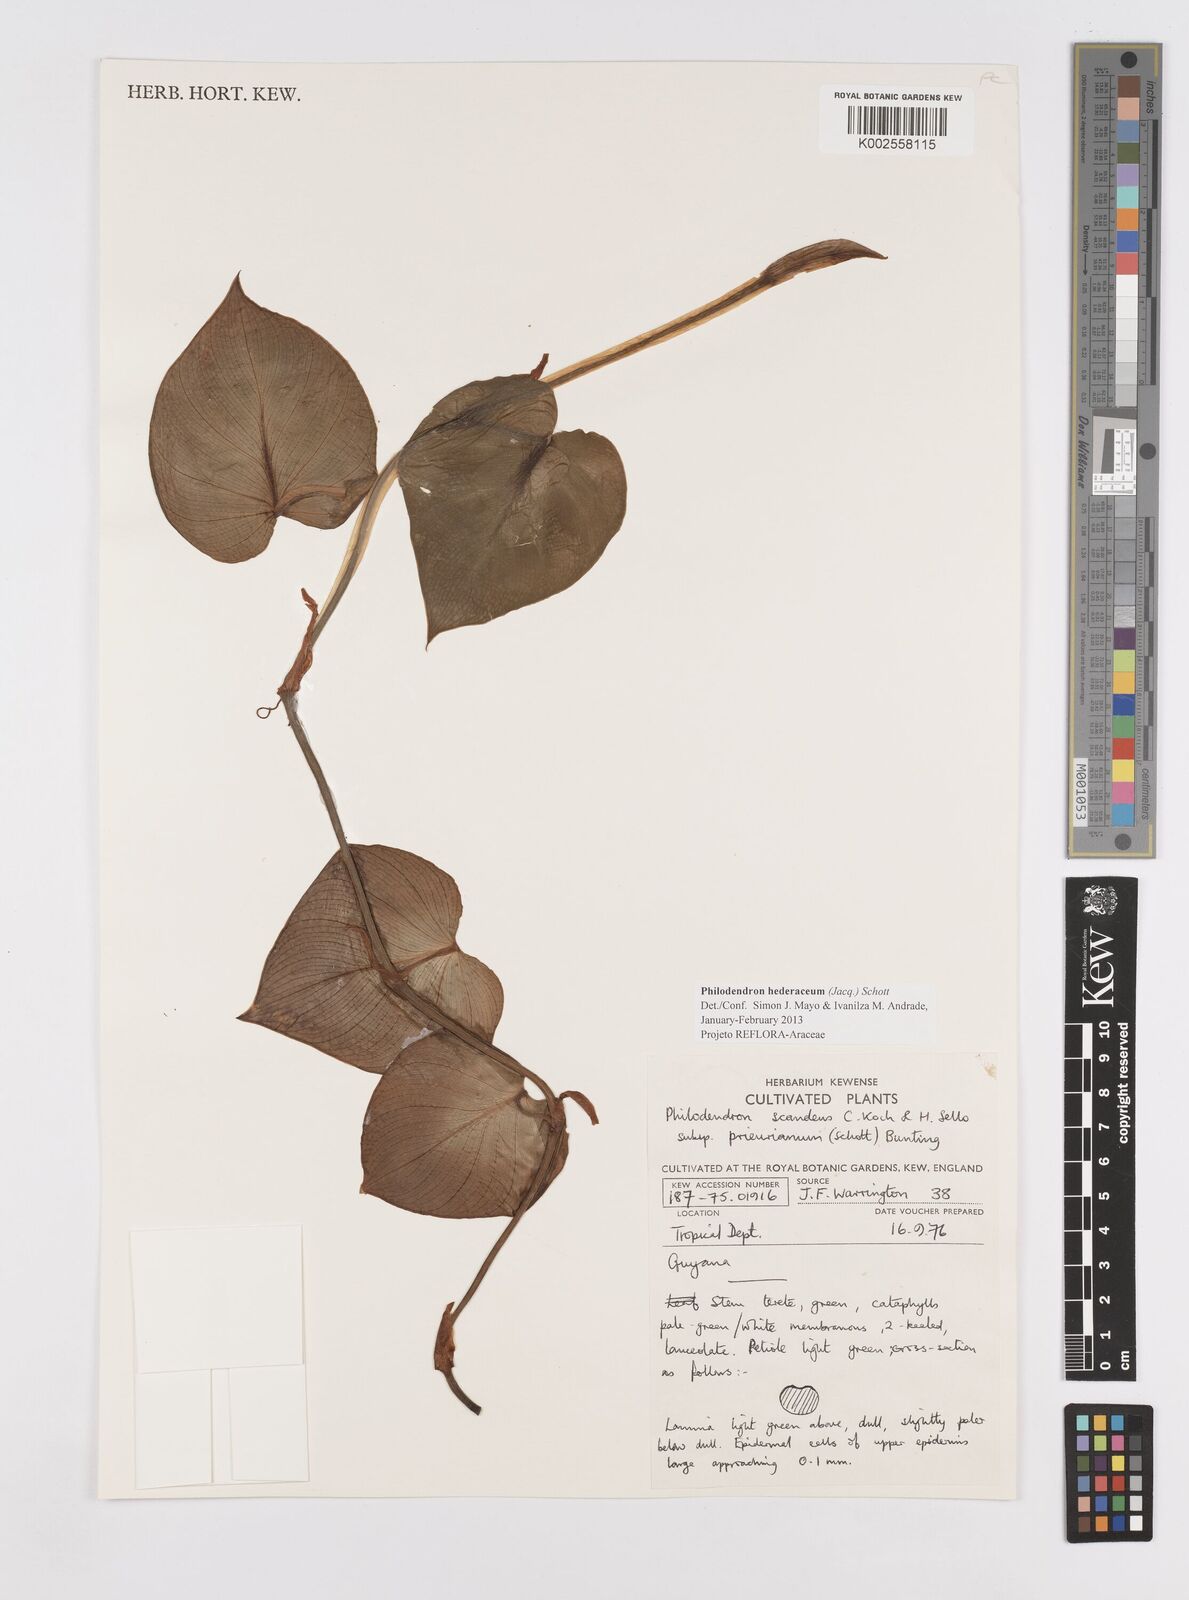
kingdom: Plantae
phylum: Tracheophyta
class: Liliopsida
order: Alismatales
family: Araceae
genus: Philodendron
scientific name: Philodendron hederaceum
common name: Vilevine
